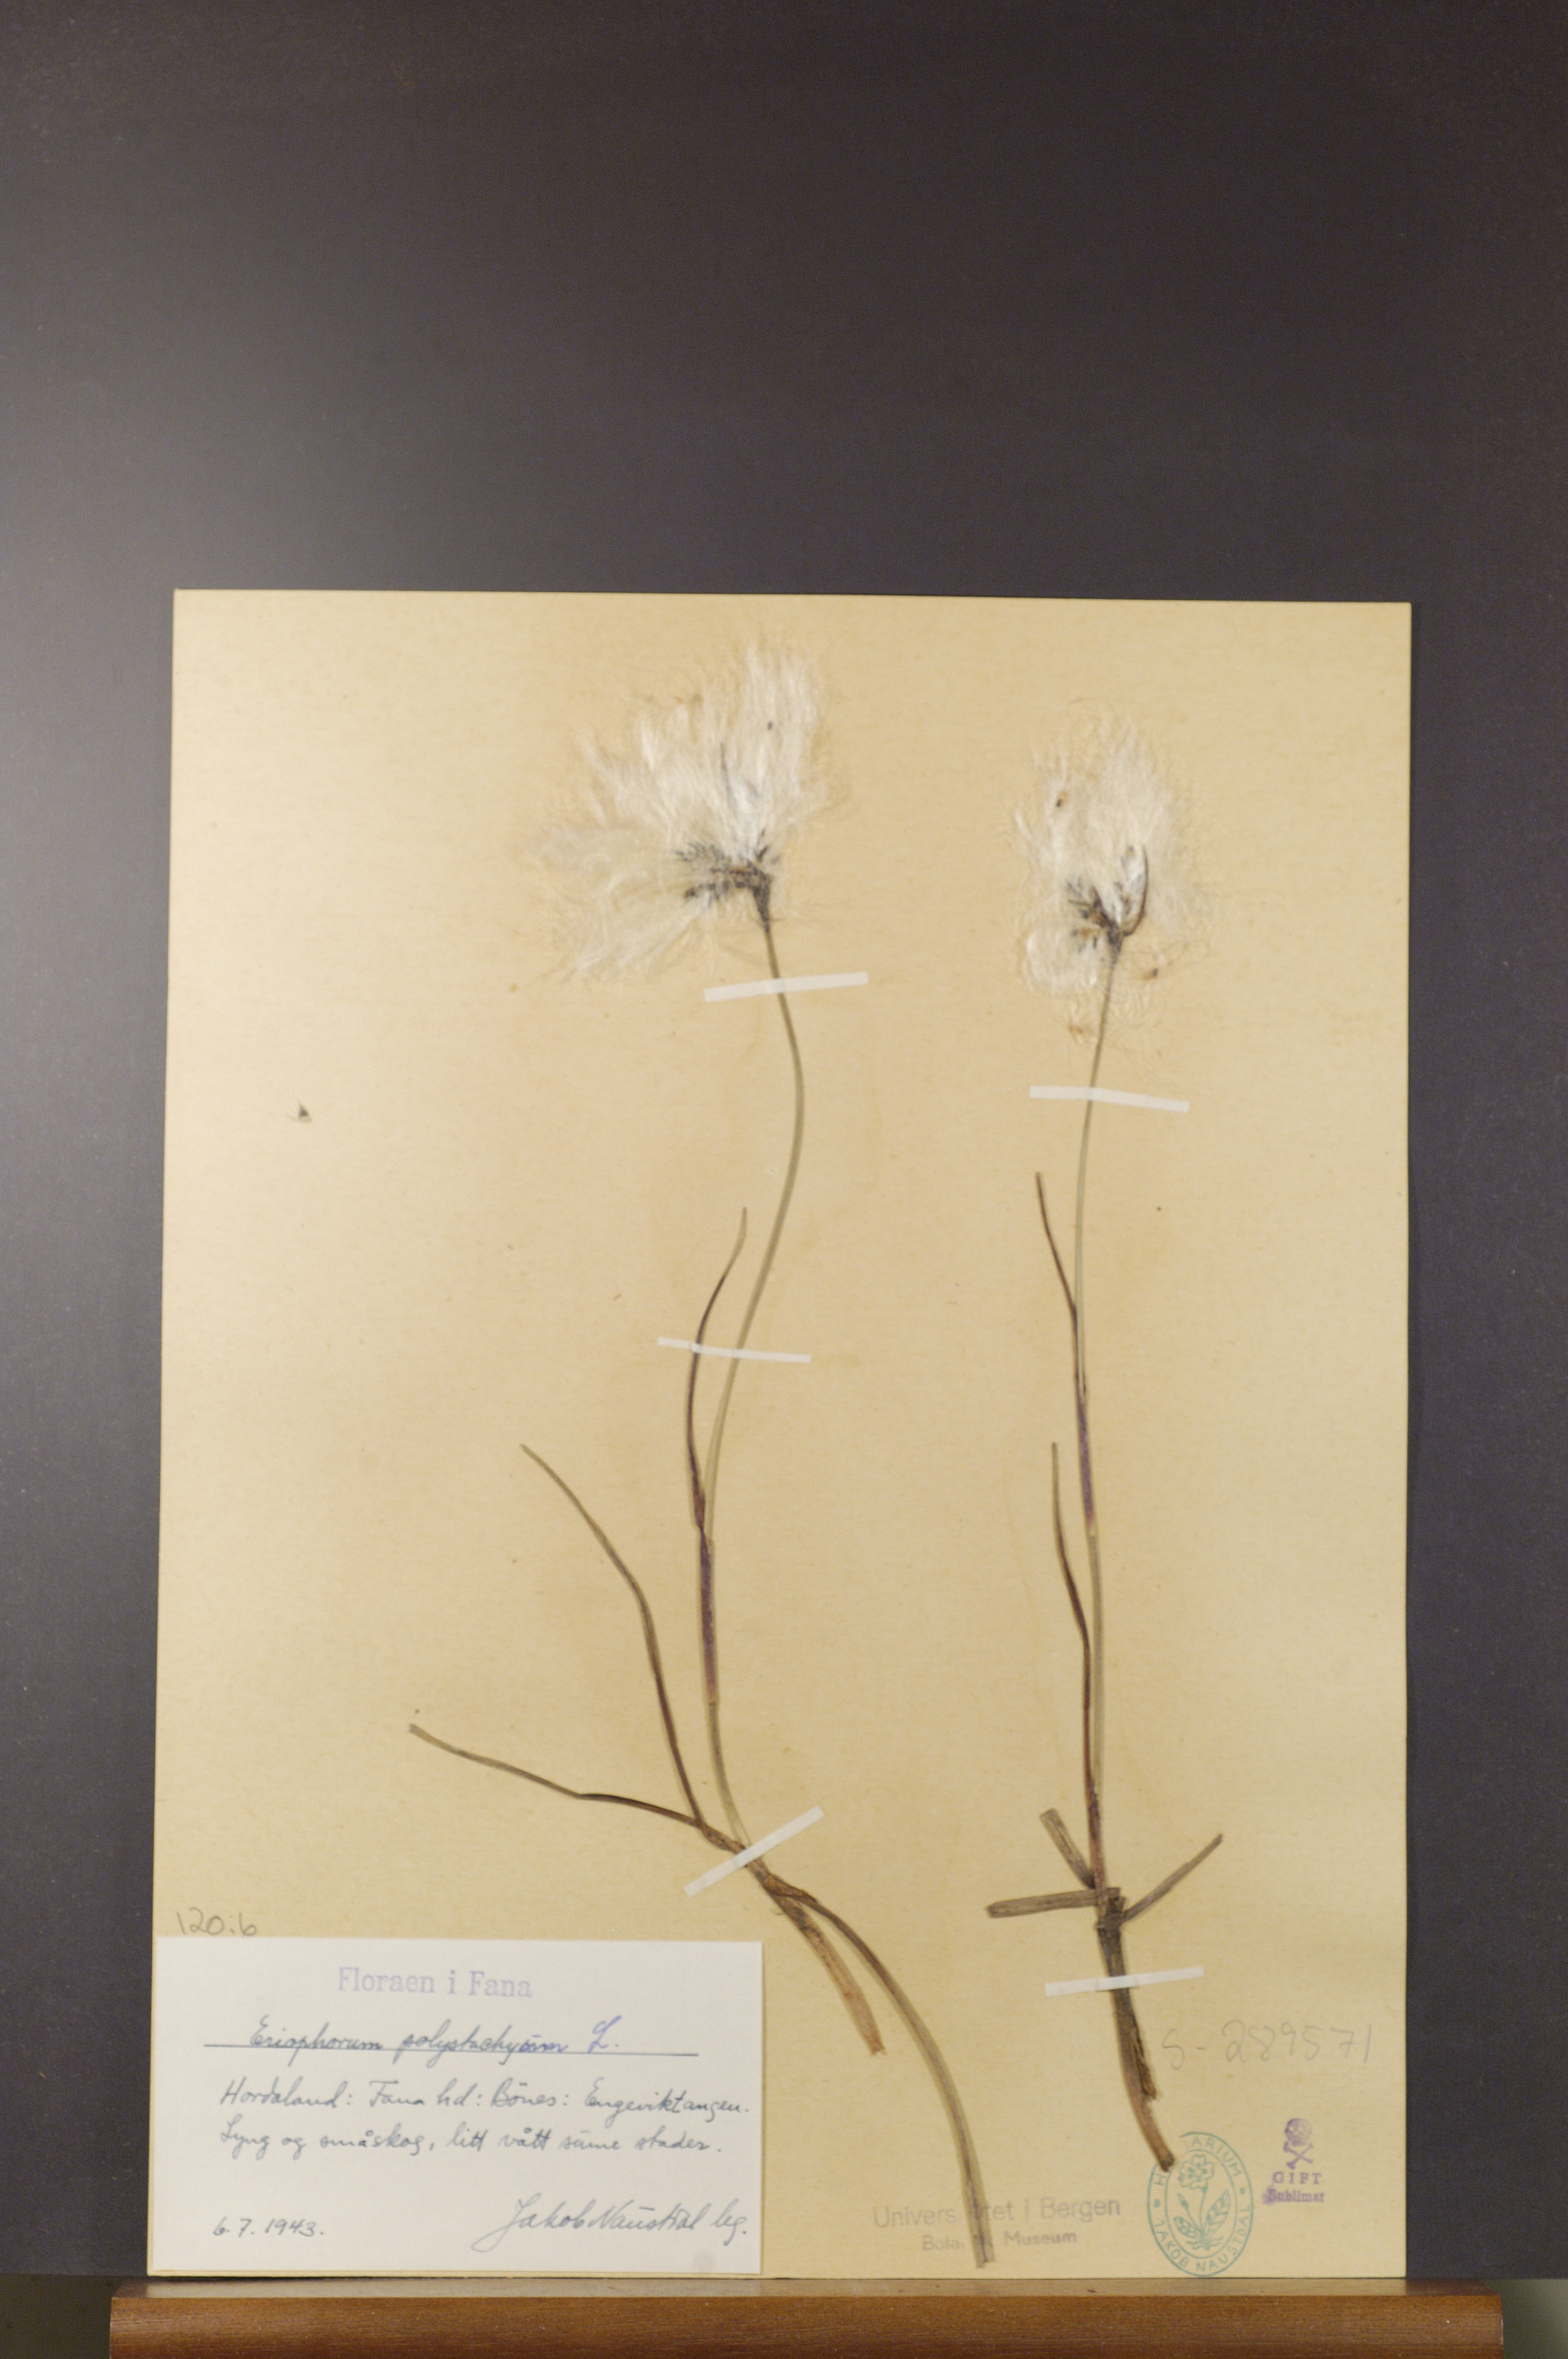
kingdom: Plantae
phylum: Tracheophyta
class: Liliopsida
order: Poales
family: Cyperaceae
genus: Eriophorum
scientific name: Eriophorum angustifolium
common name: Common cottongrass
